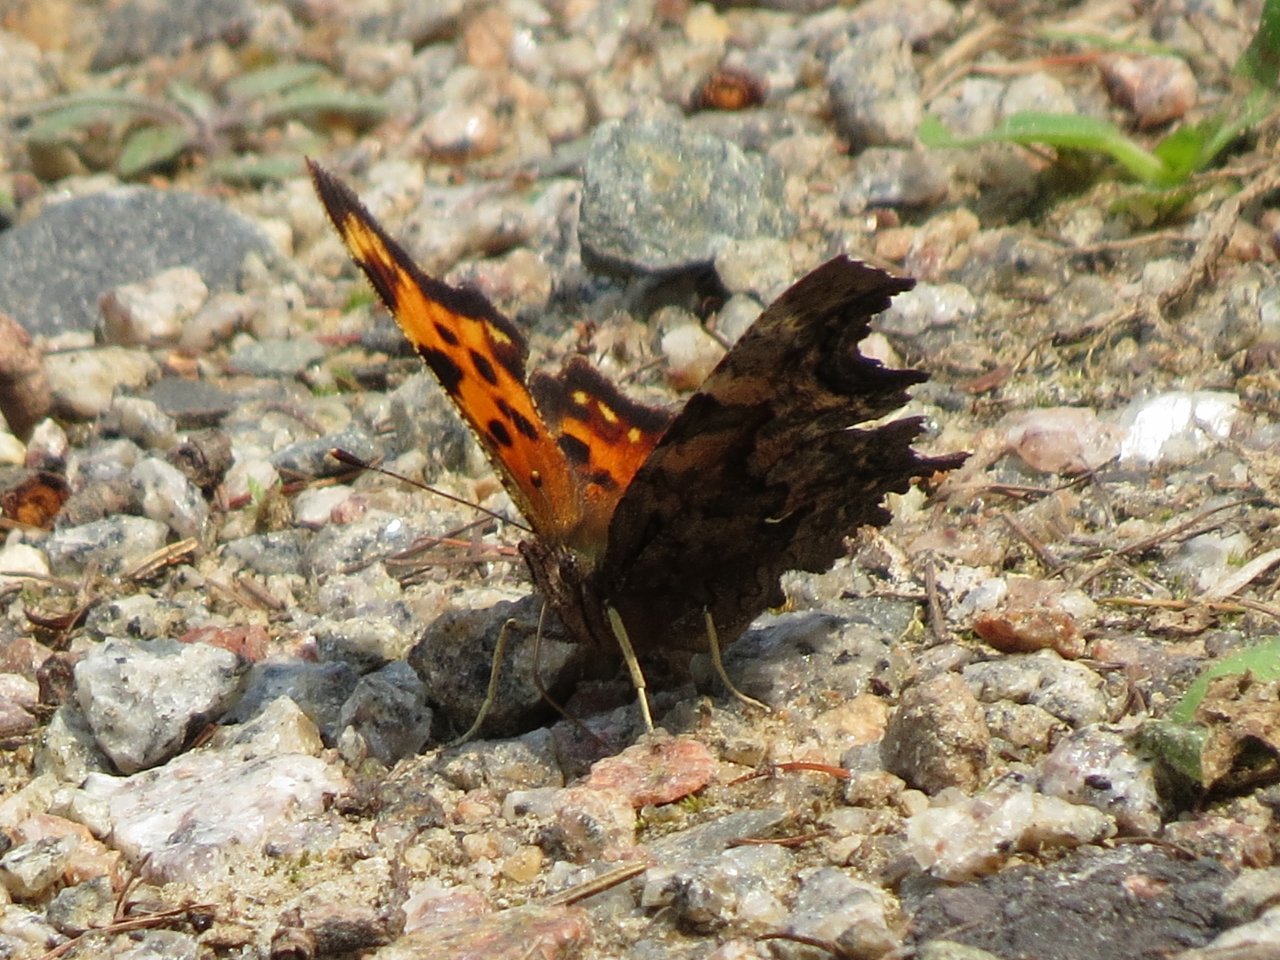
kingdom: Animalia
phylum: Arthropoda
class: Insecta
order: Lepidoptera
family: Nymphalidae
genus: Polygonia
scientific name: Polygonia faunus
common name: Green Comma
